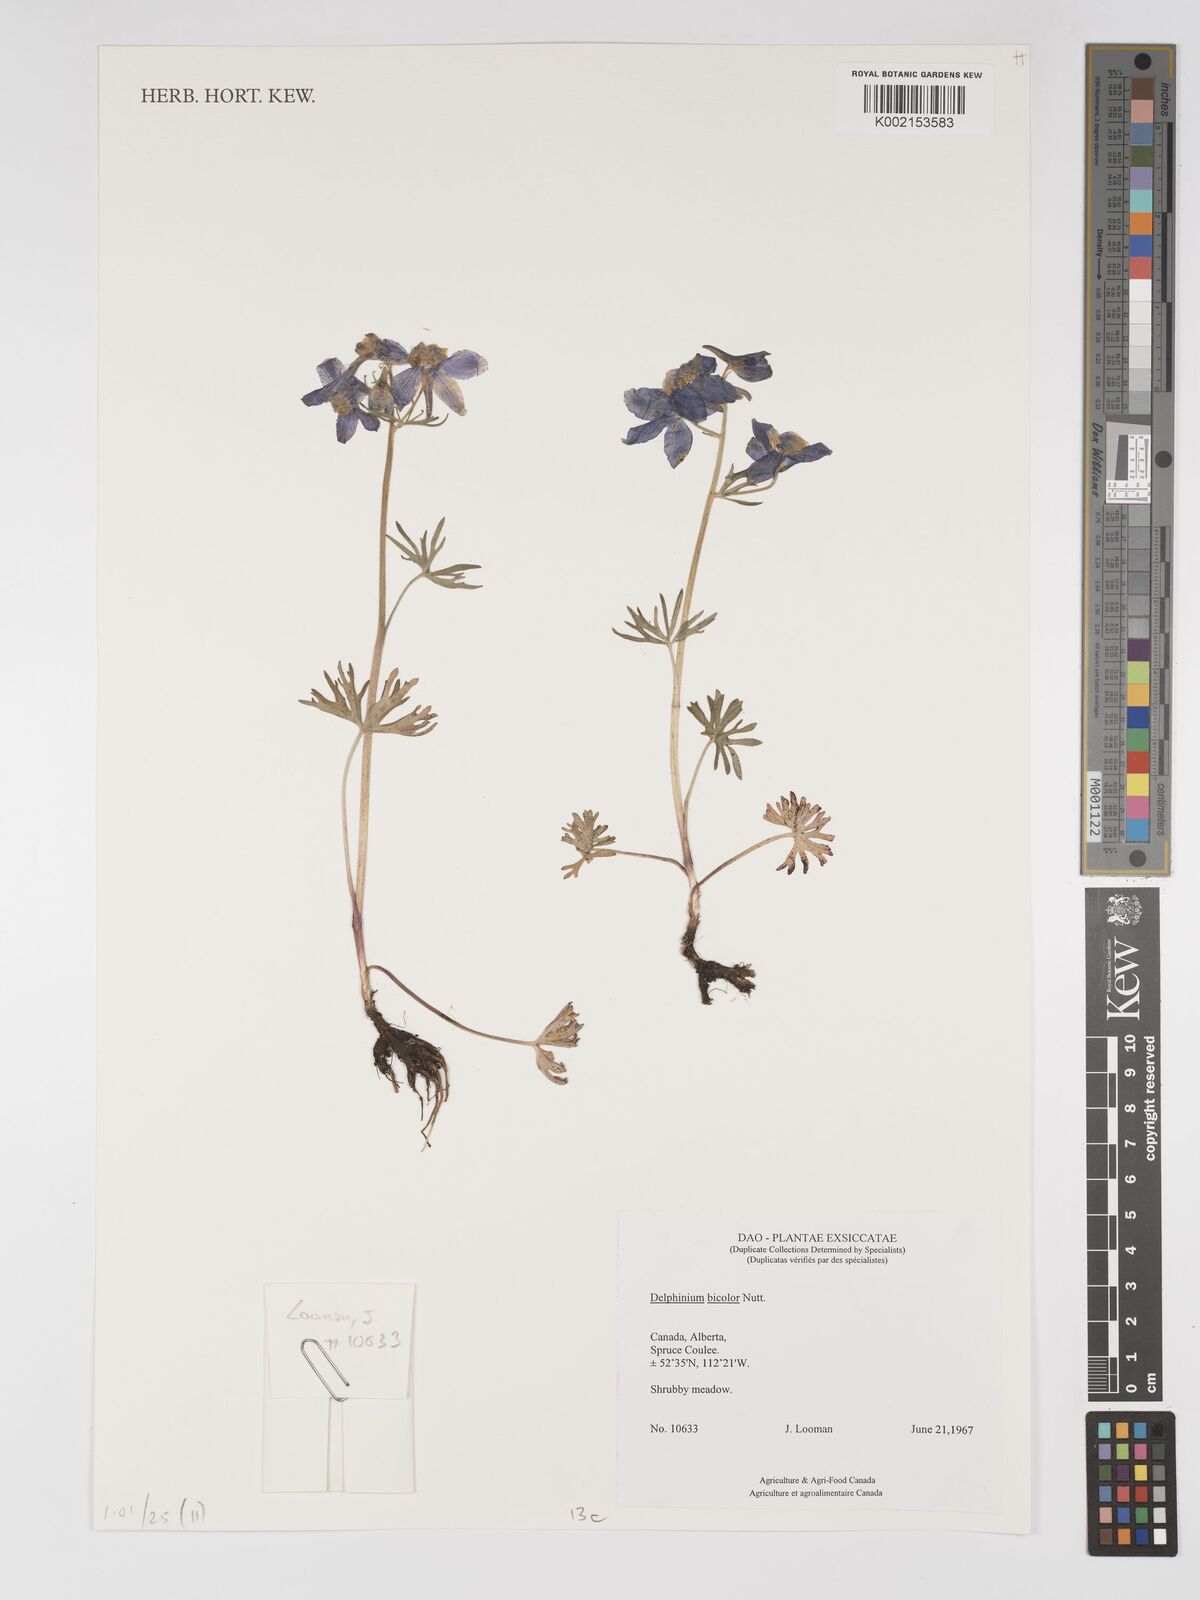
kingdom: Plantae
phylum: Tracheophyta
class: Magnoliopsida
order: Ranunculales
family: Ranunculaceae
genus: Delphinium
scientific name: Delphinium bicolor
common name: Low larkspur
